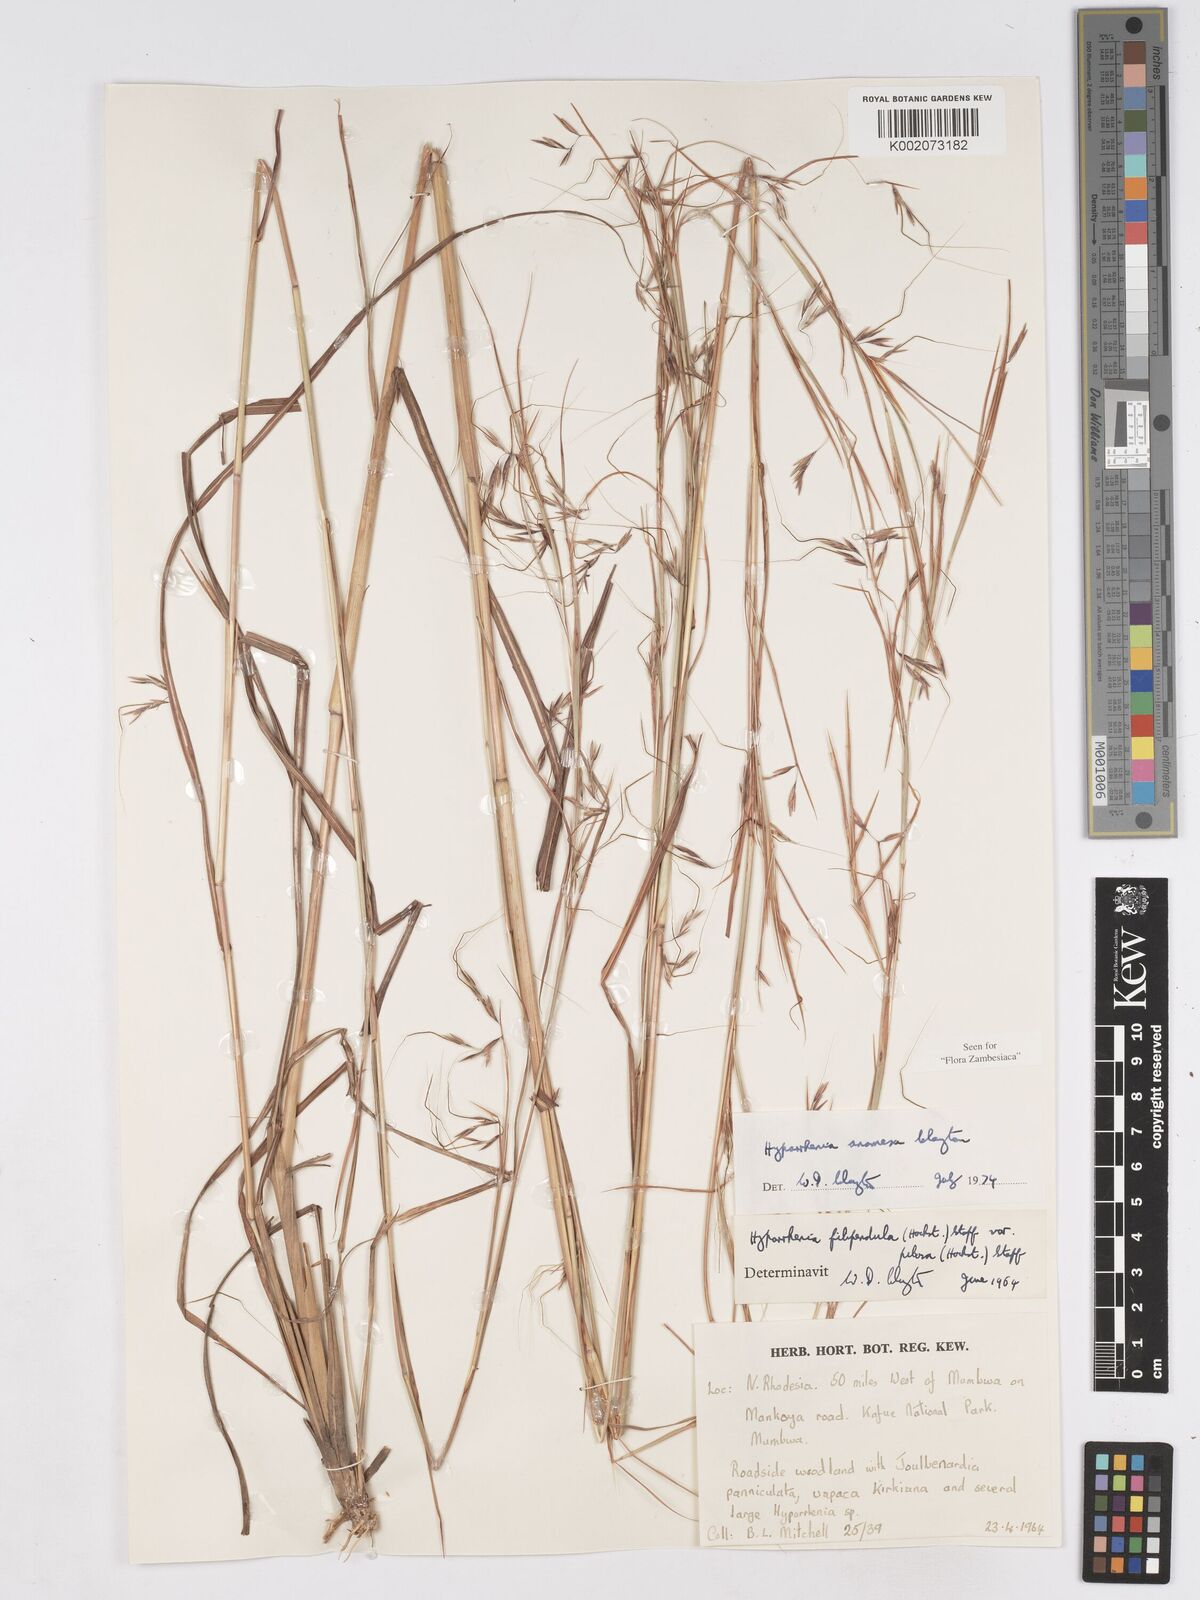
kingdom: Plantae
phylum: Tracheophyta
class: Liliopsida
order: Poales
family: Poaceae
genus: Hyparrhenia
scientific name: Hyparrhenia anamesa
